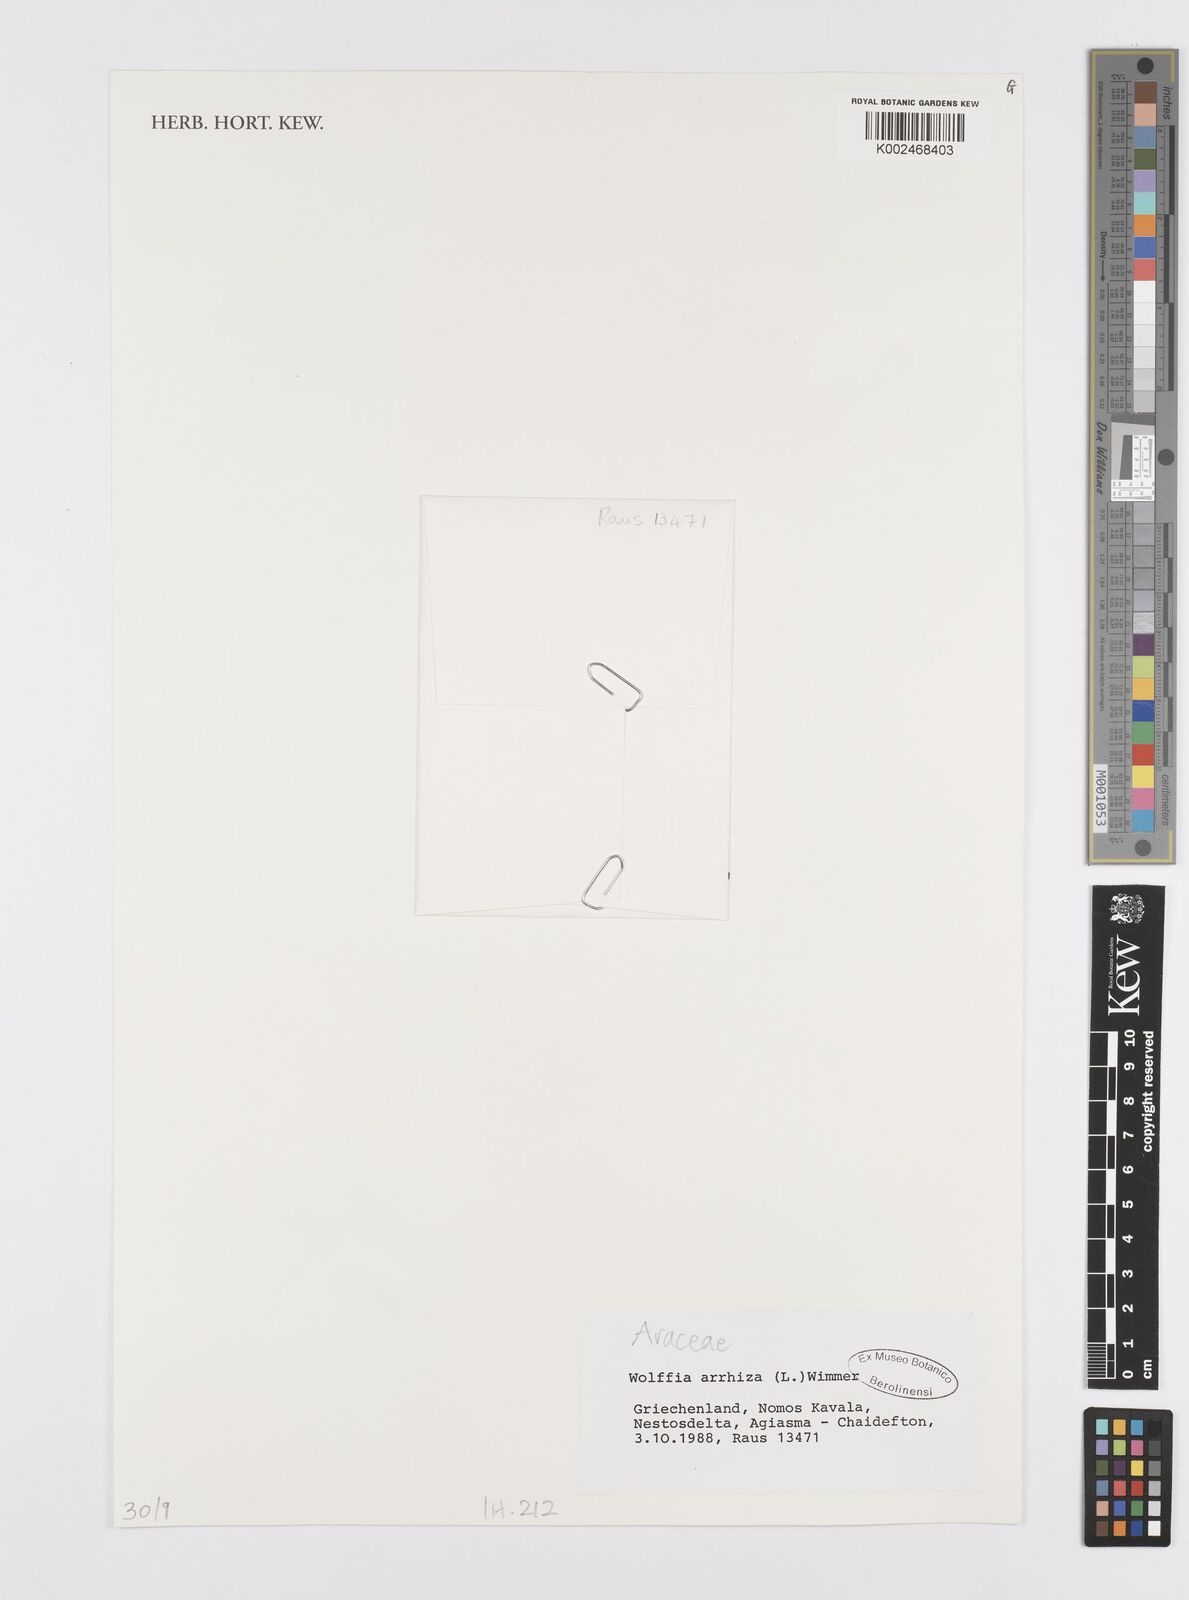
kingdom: Plantae
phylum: Tracheophyta
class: Liliopsida
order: Alismatales
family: Araceae
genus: Wolffia
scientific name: Wolffia arrhiza
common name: Rootless duckweed
